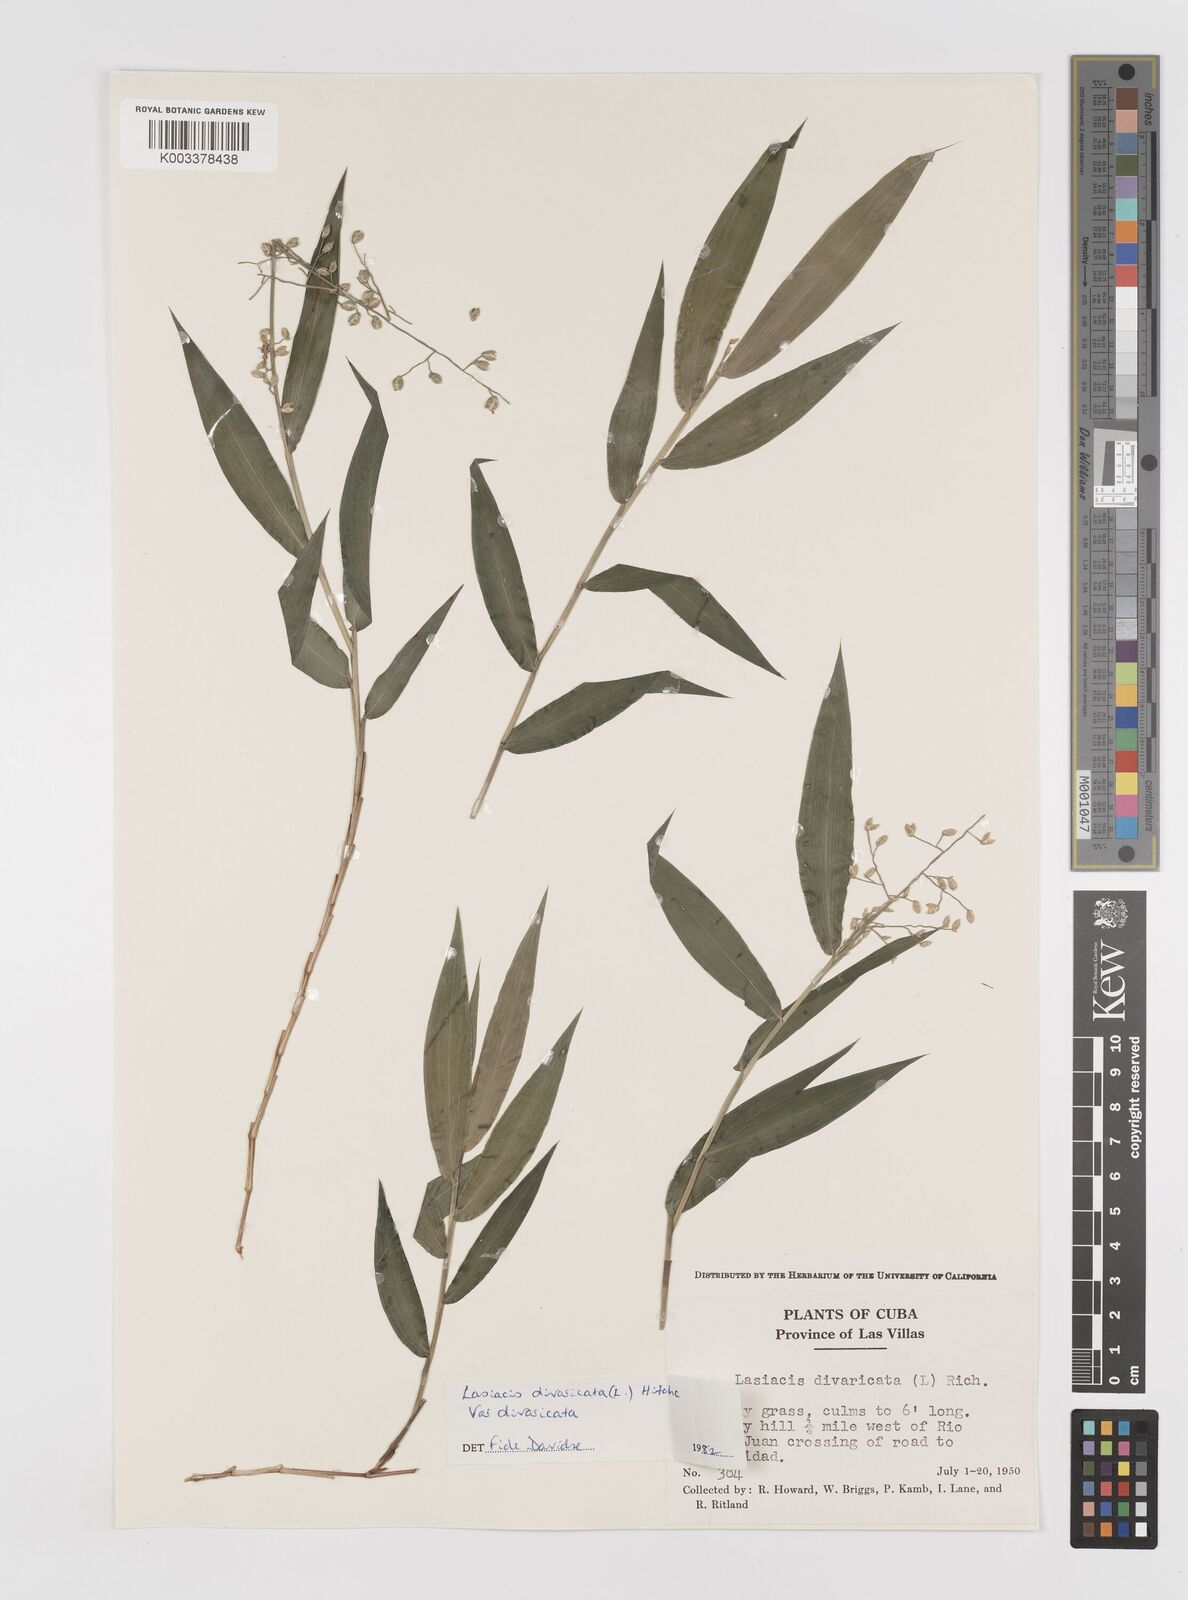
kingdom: Plantae
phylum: Tracheophyta
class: Liliopsida
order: Poales
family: Poaceae
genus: Lasiacis
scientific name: Lasiacis divaricata
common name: Smallcane
